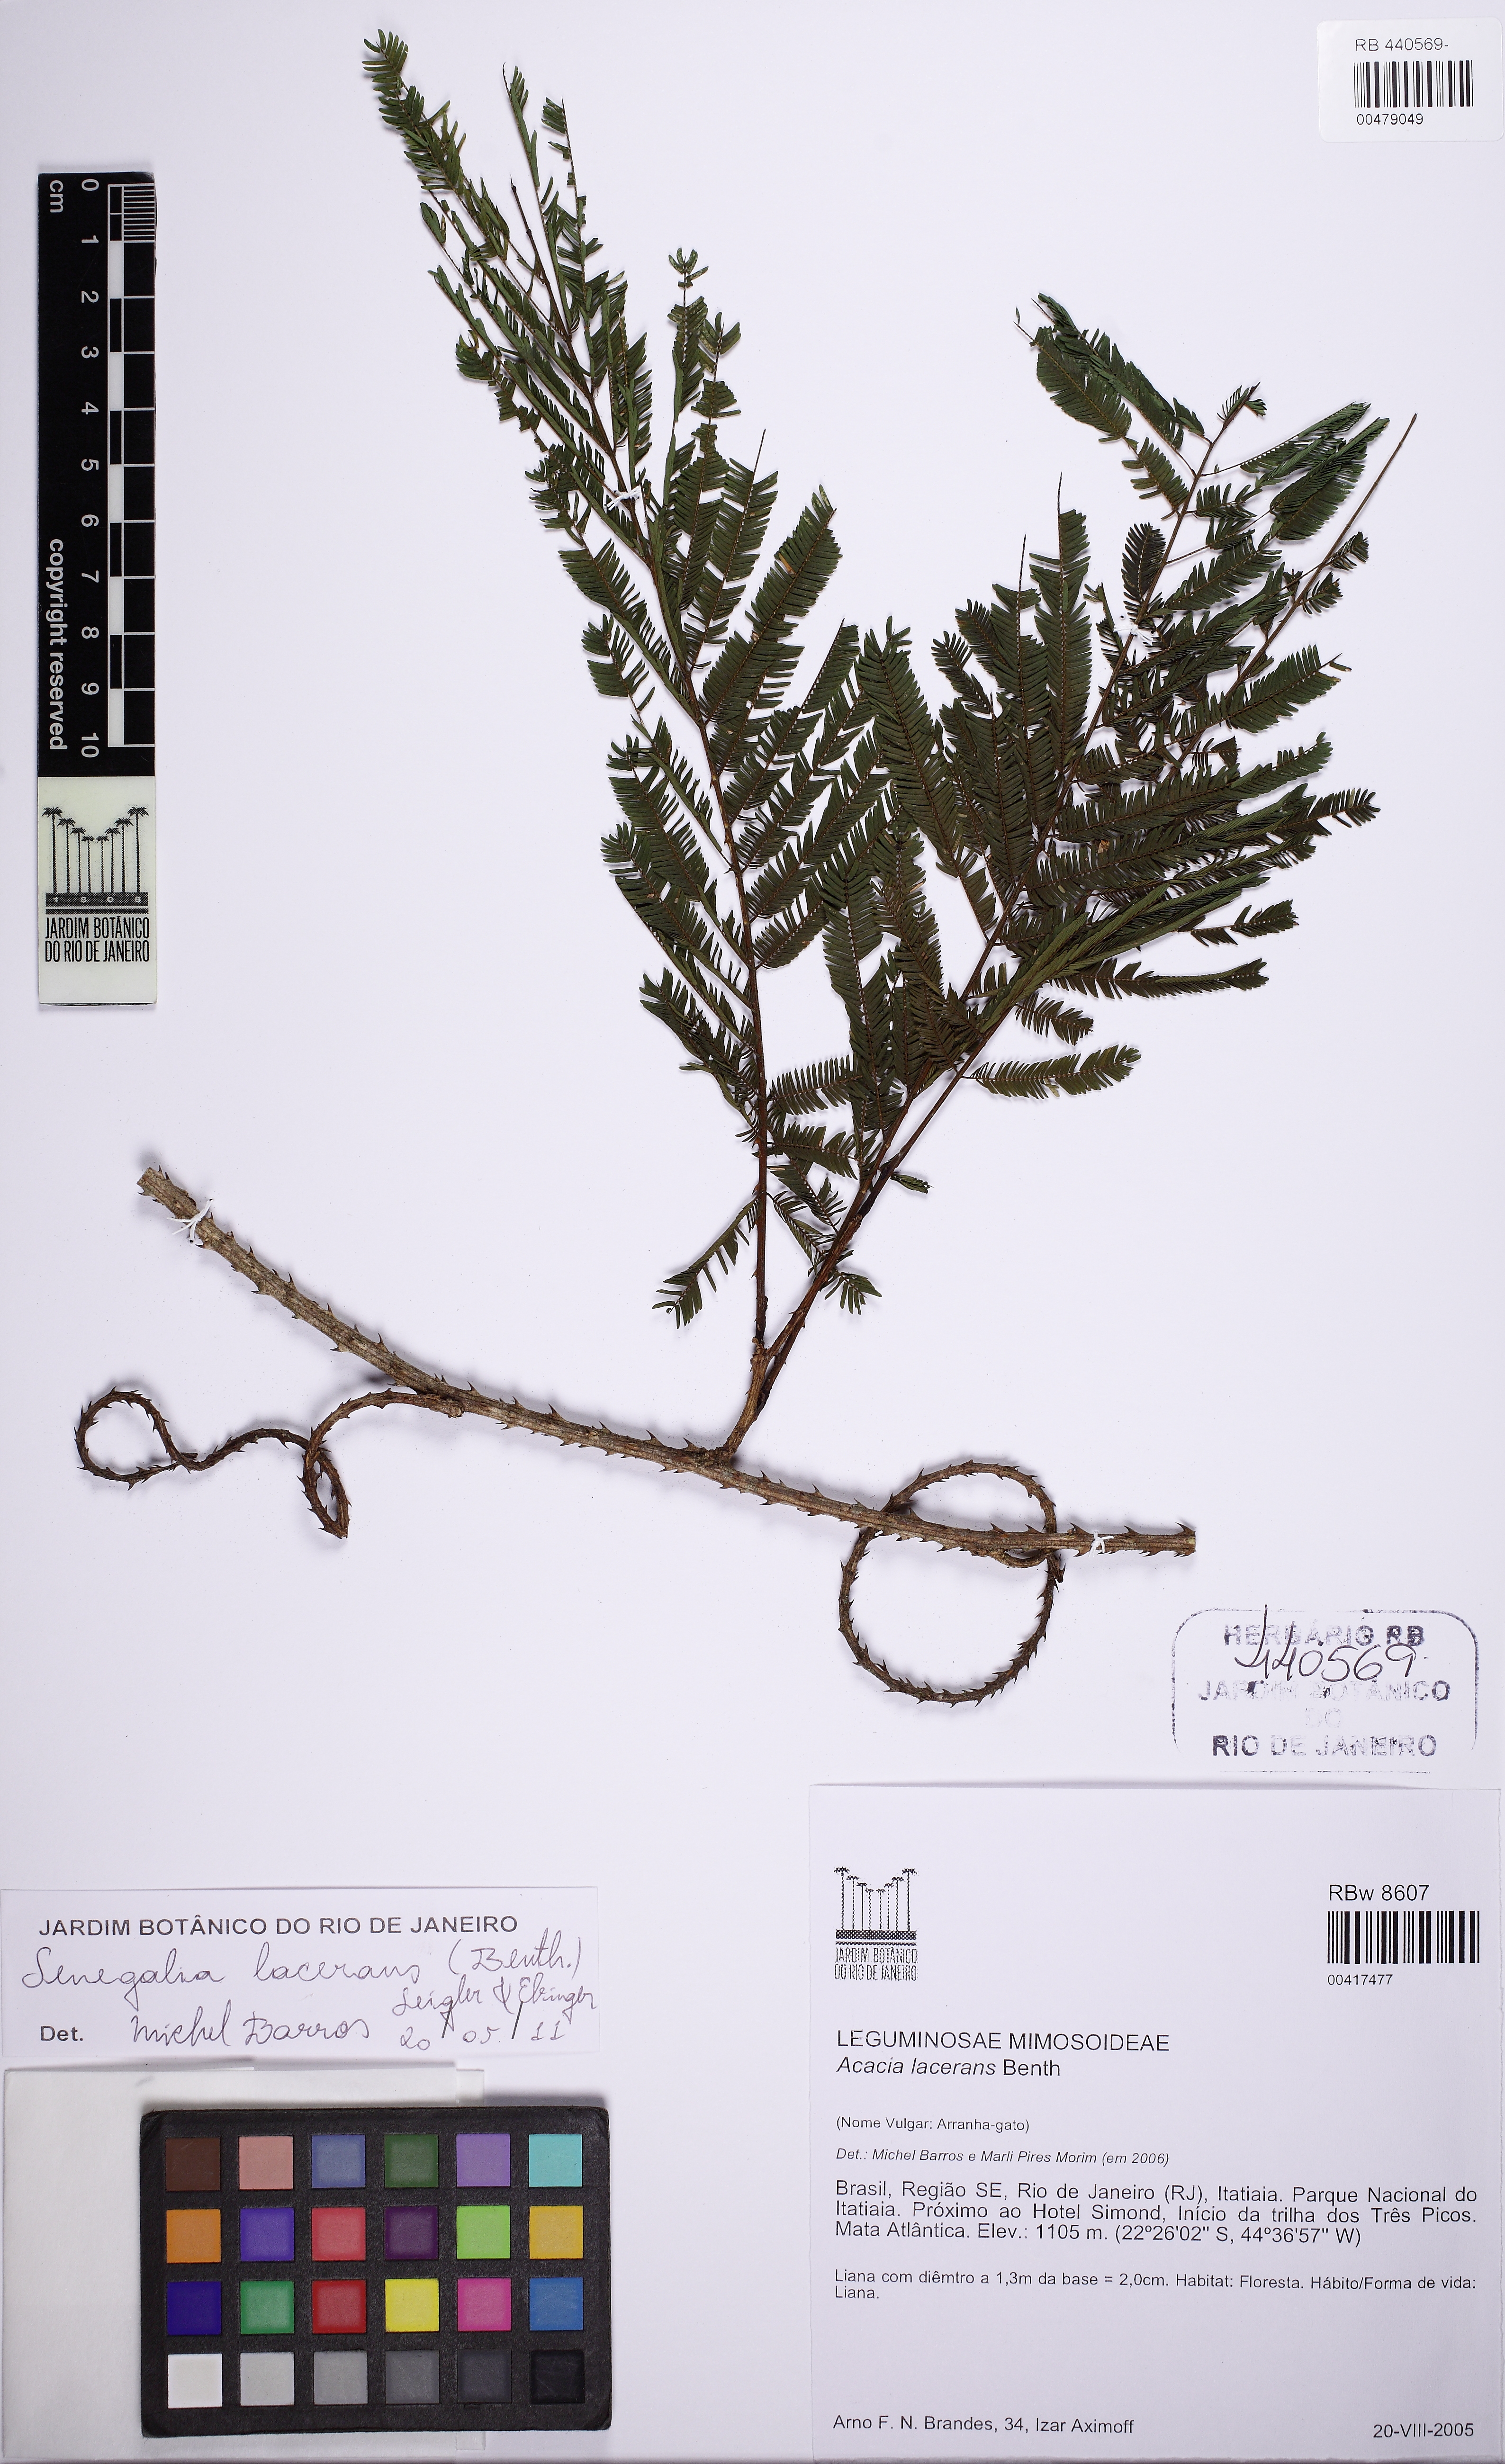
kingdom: Plantae
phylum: Tracheophyta
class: Magnoliopsida
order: Fabales
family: Fabaceae
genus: Senegalia
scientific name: Senegalia lacerans
